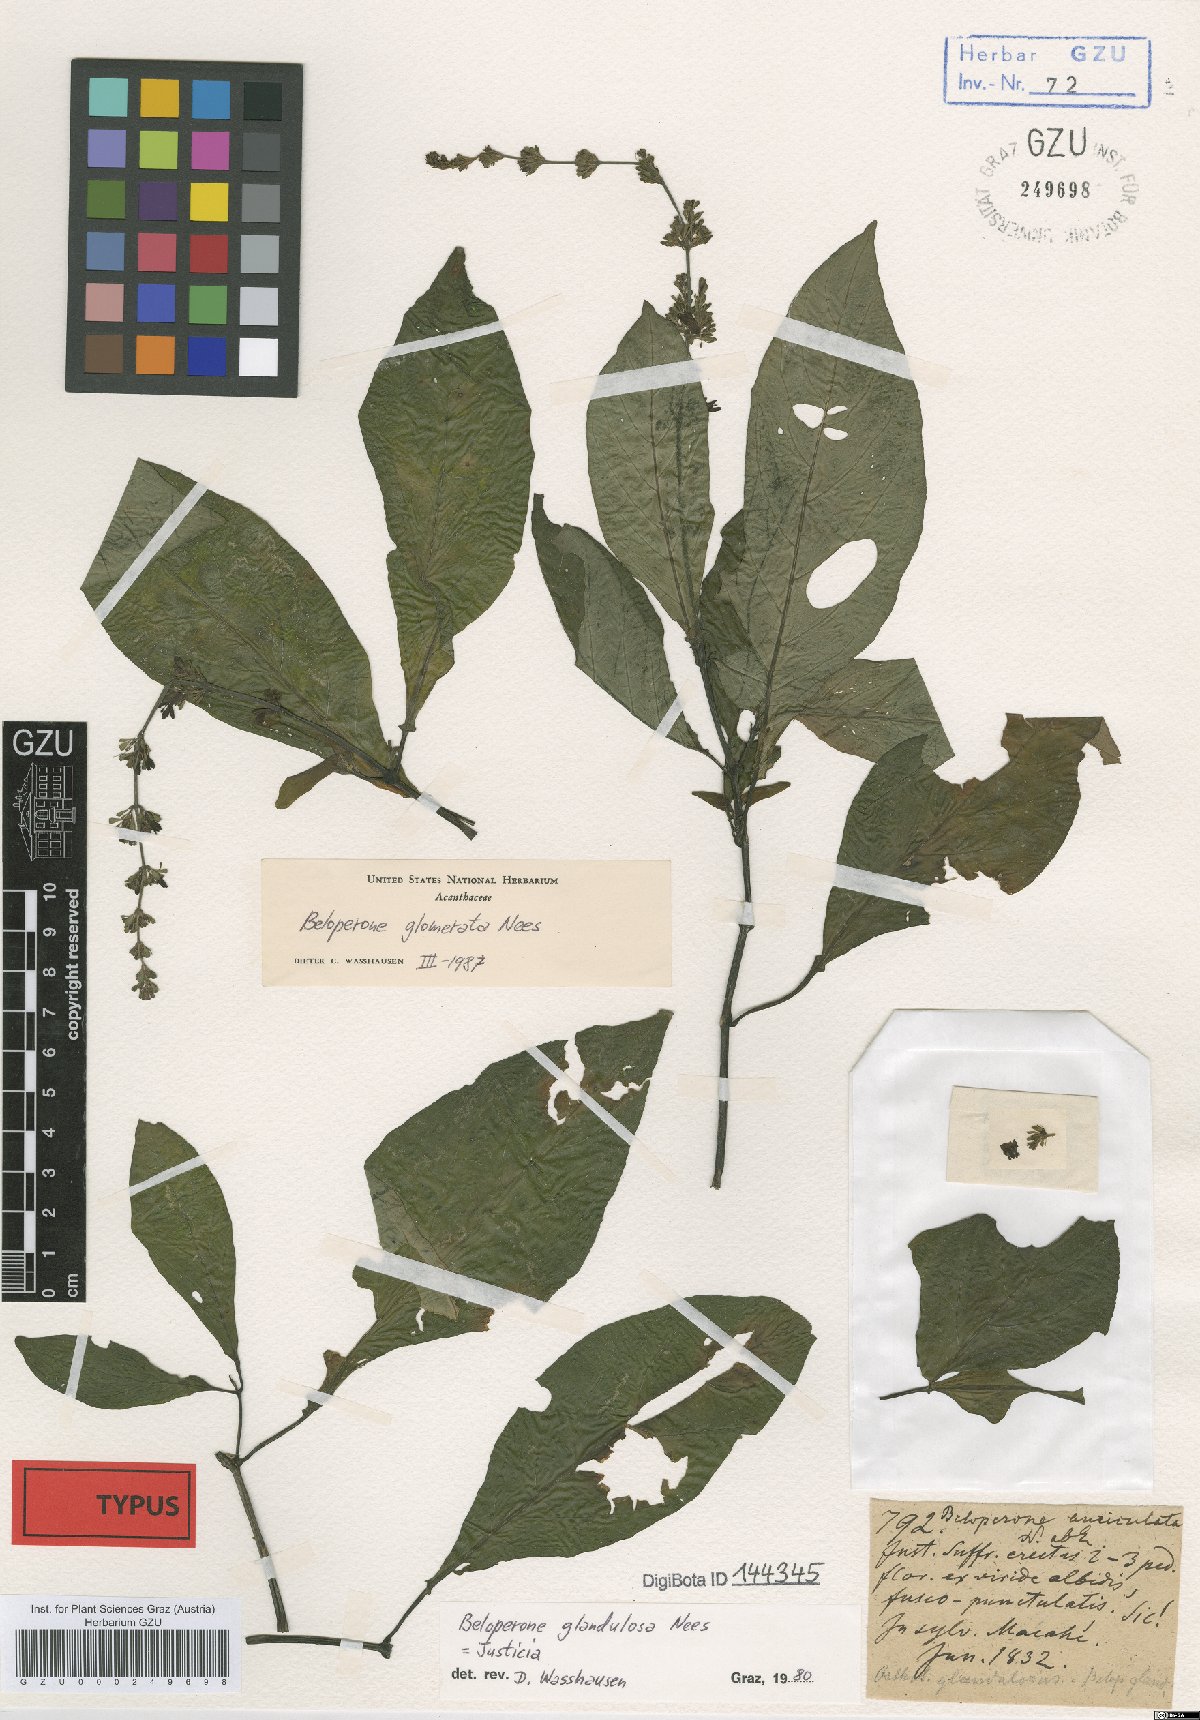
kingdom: Plantae
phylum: Tracheophyta
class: Magnoliopsida
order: Lamiales
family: Acanthaceae
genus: Justicia
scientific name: Justicia Beloperone auriculata
